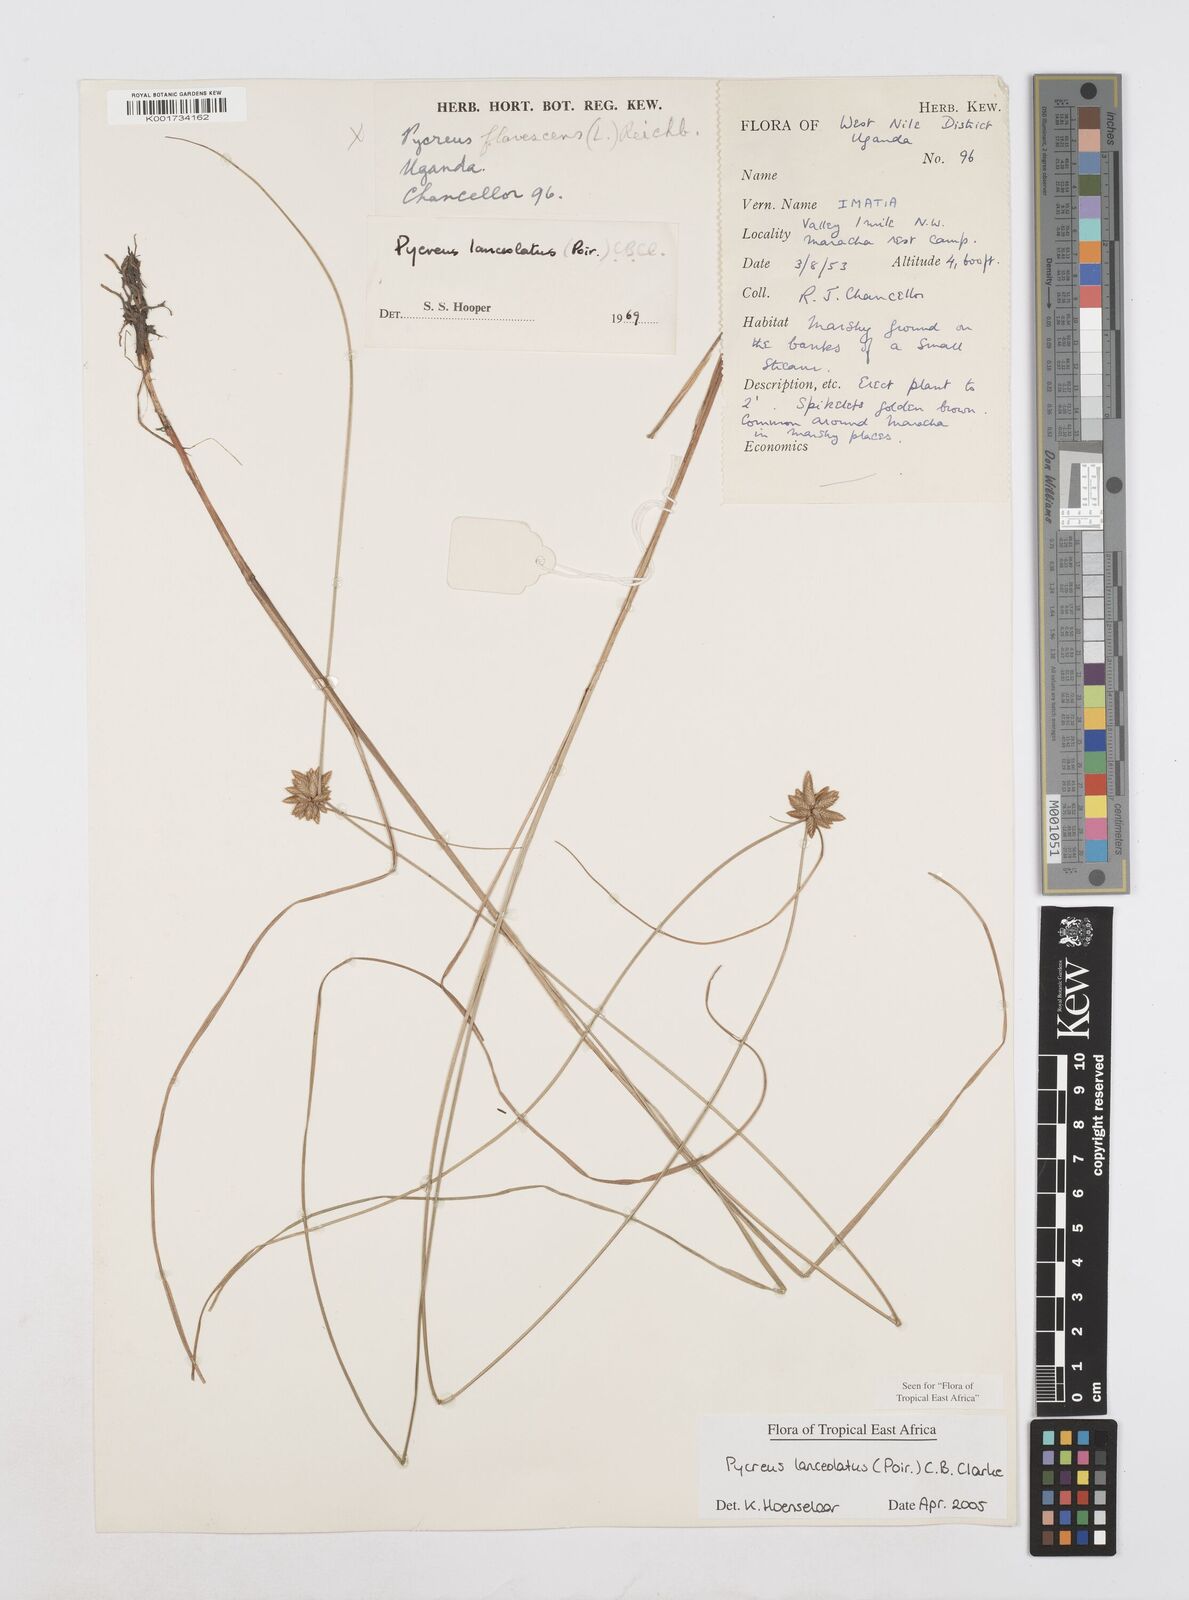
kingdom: Plantae
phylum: Tracheophyta
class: Liliopsida
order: Poales
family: Cyperaceae
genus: Cyperus
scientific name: Cyperus lanceolatus
